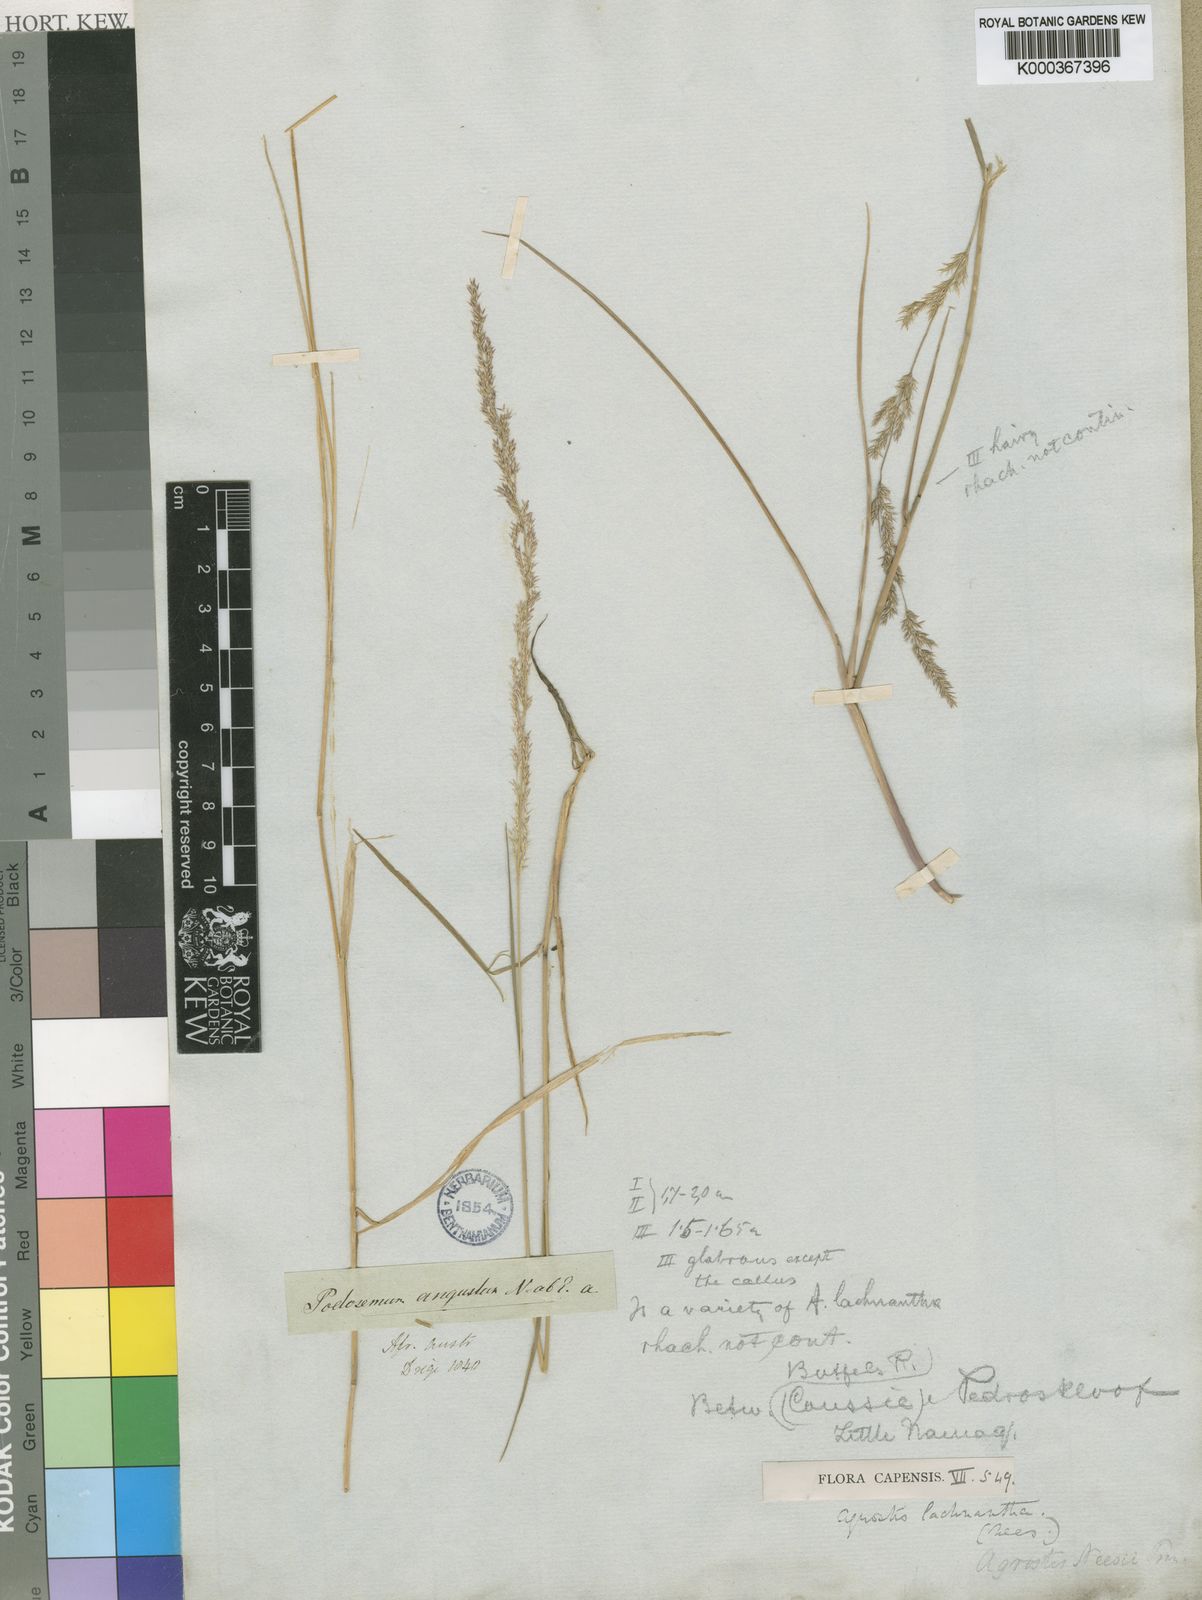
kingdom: Plantae
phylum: Tracheophyta
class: Liliopsida
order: Poales
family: Poaceae
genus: Lachnagrostis
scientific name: Lachnagrostis lachnantha
